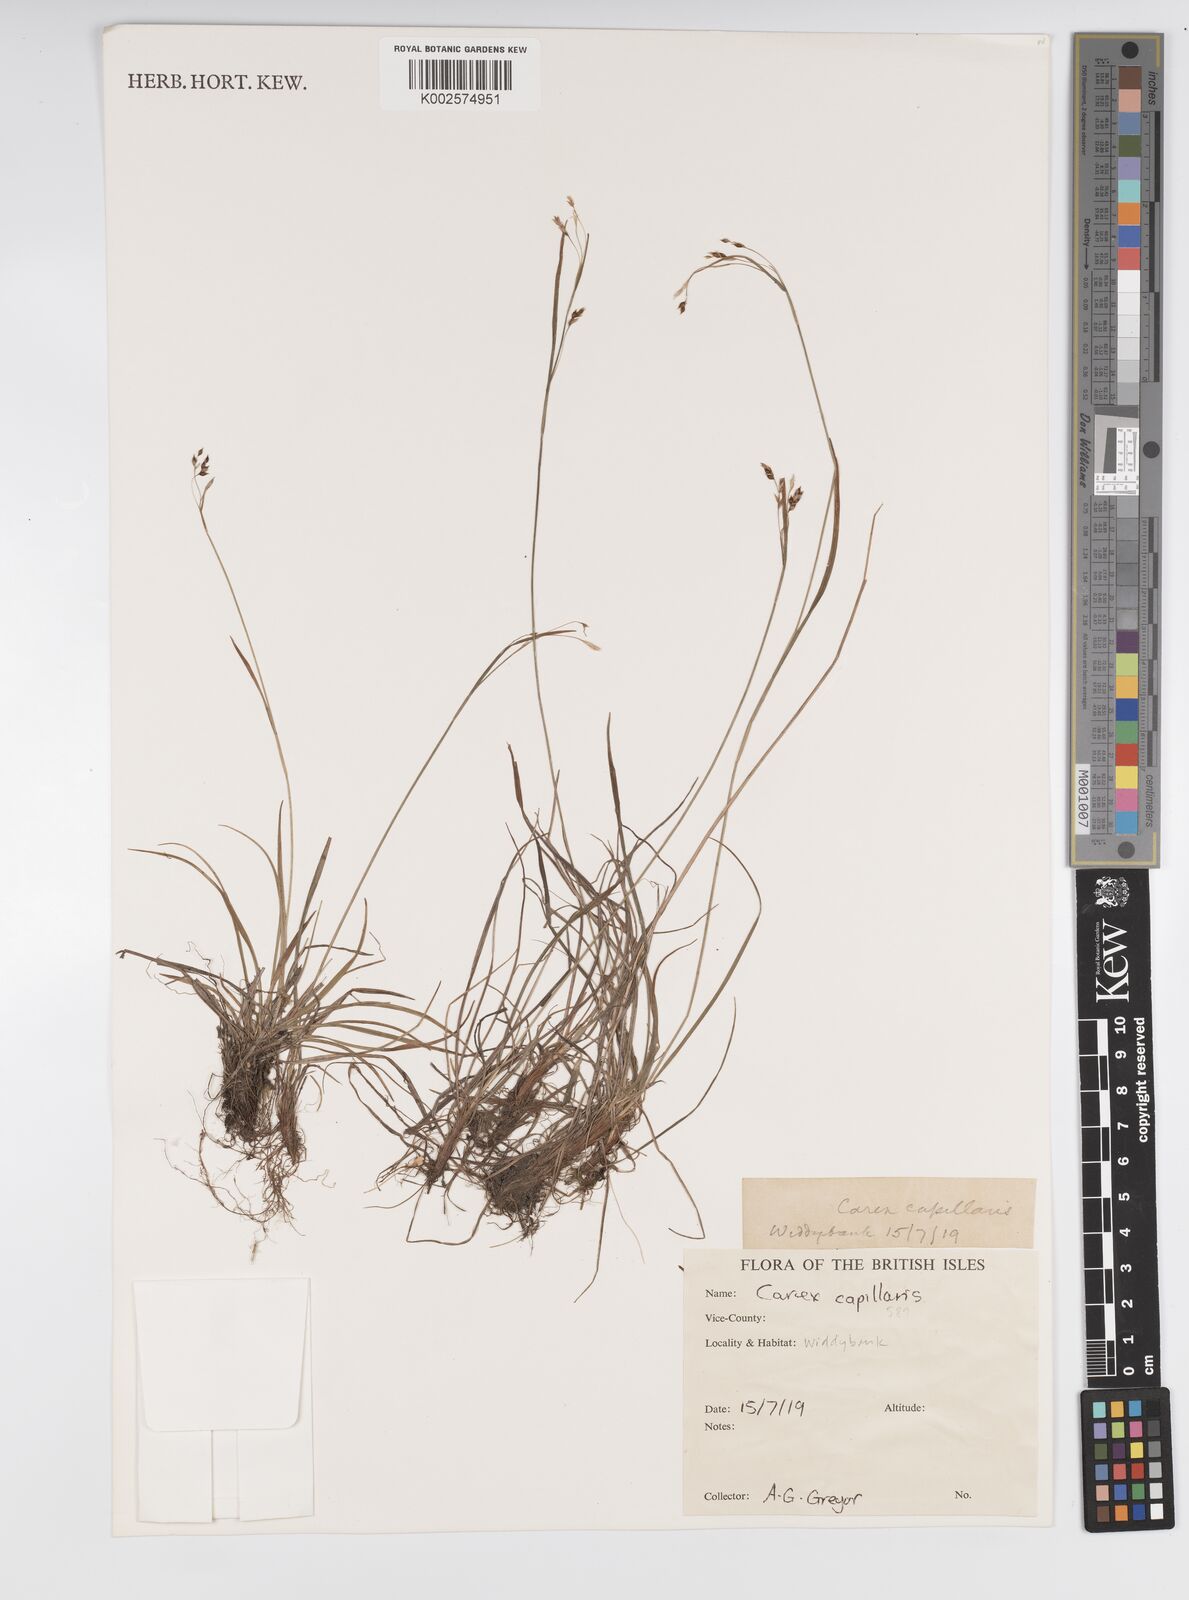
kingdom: Plantae
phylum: Tracheophyta
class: Liliopsida
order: Poales
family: Cyperaceae
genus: Carex
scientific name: Carex capillaris
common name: Hair sedge
